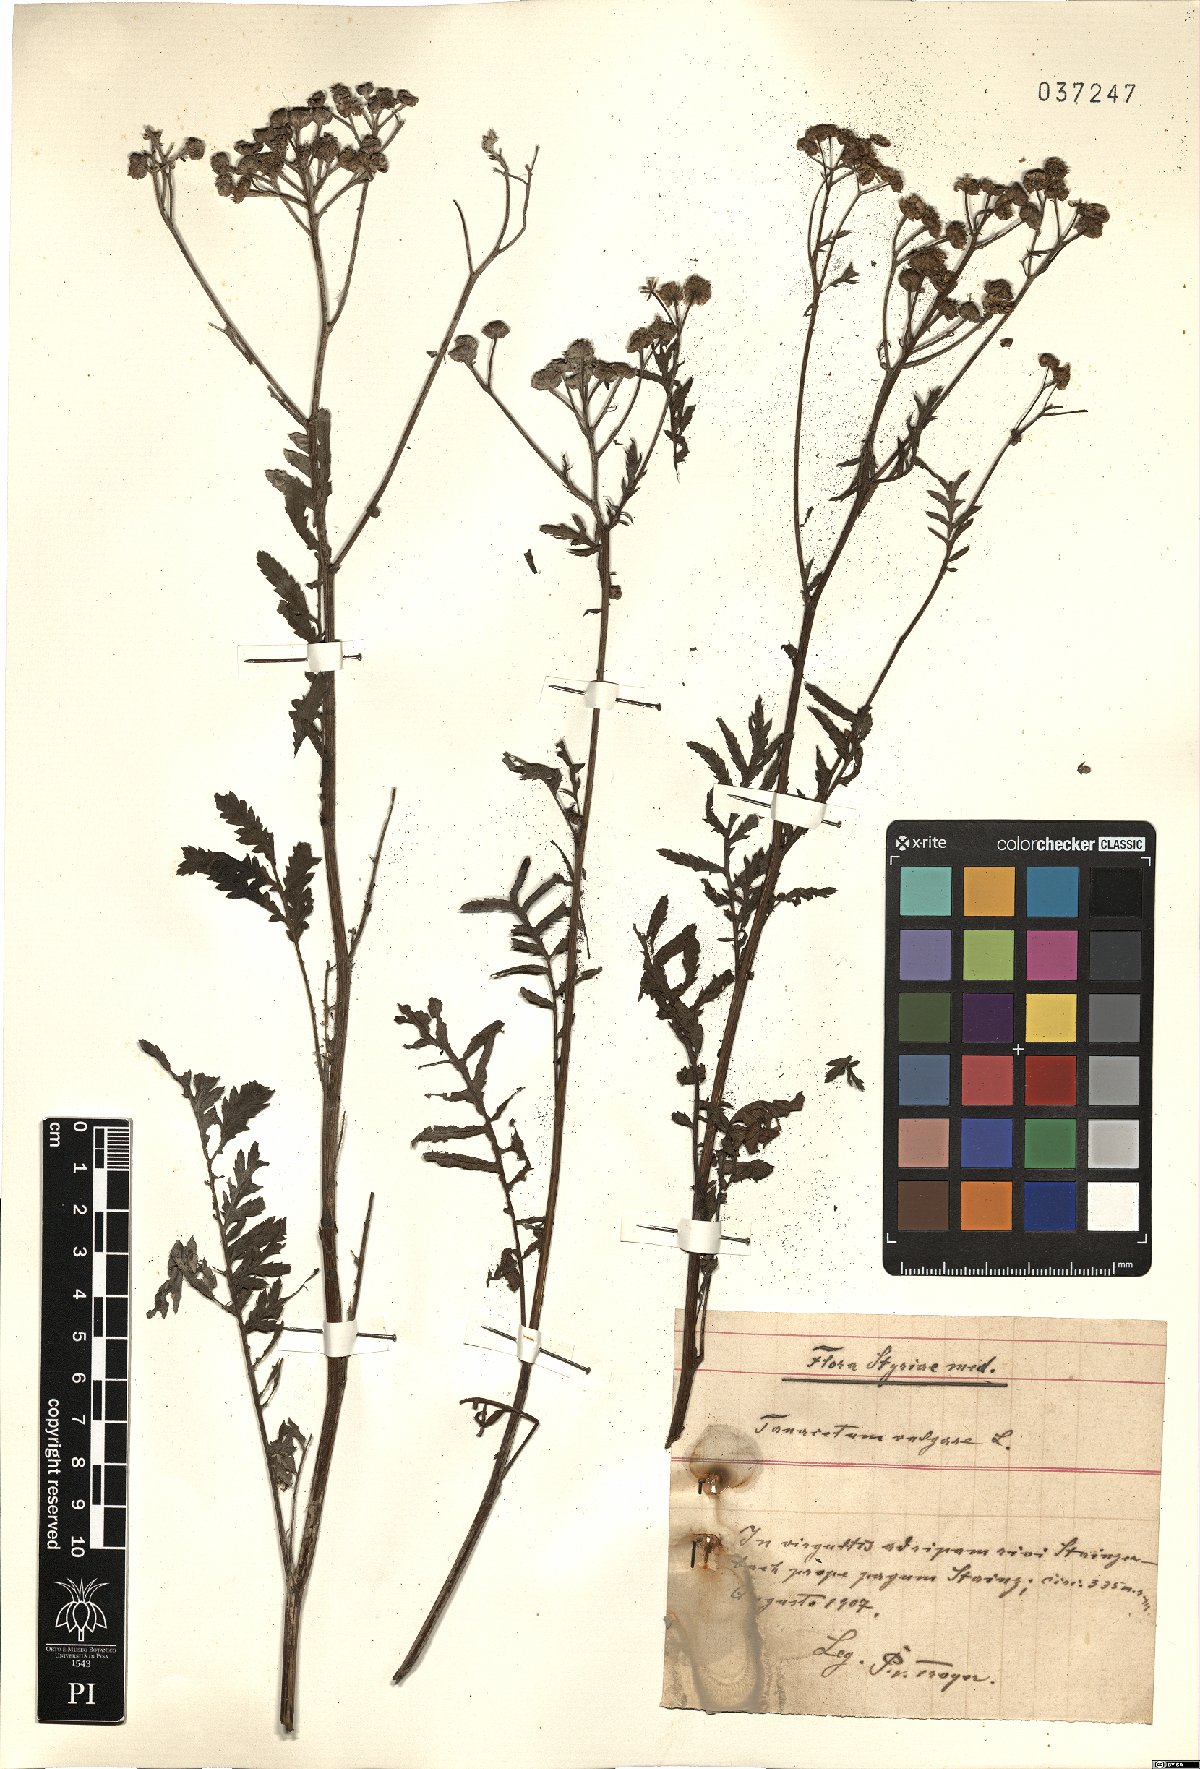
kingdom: Plantae
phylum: Tracheophyta
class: Magnoliopsida
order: Asterales
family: Asteraceae
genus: Tanacetum
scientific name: Tanacetum vulgare
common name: Common tansy
